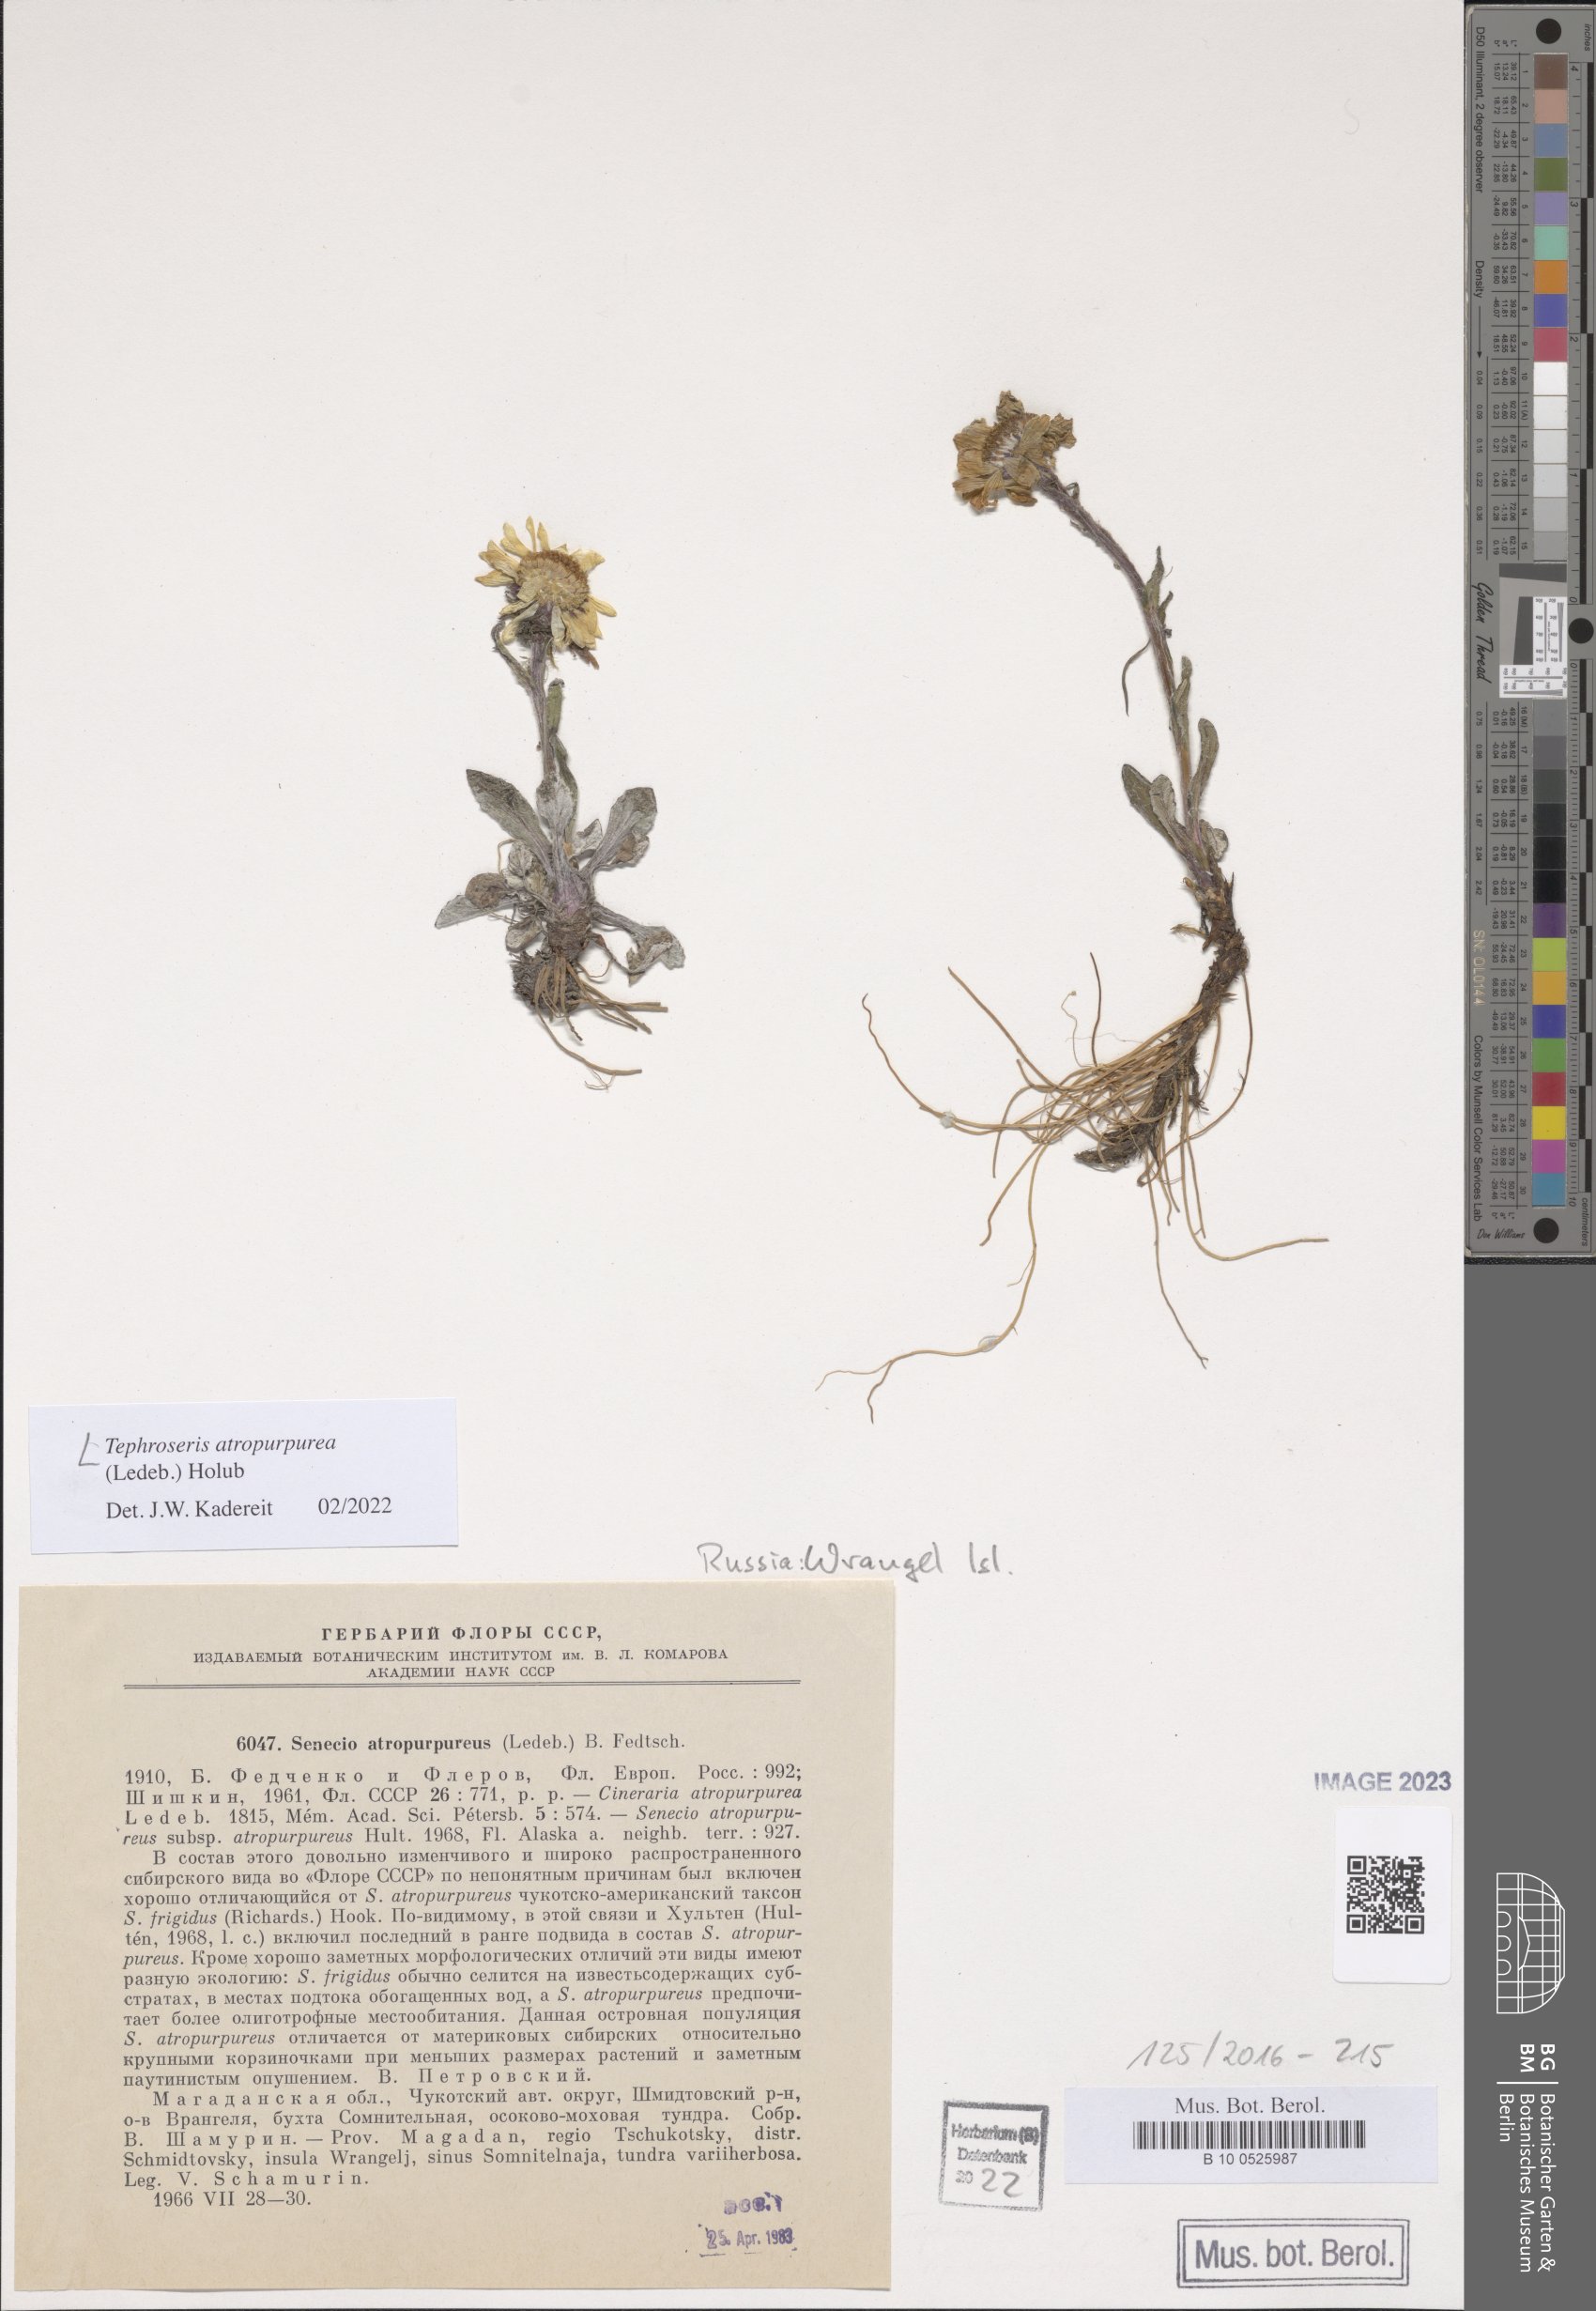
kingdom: Plantae
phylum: Tracheophyta
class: Magnoliopsida
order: Asterales
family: Asteraceae
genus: Tephroseris
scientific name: Tephroseris integrifolia
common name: Field fleawort
